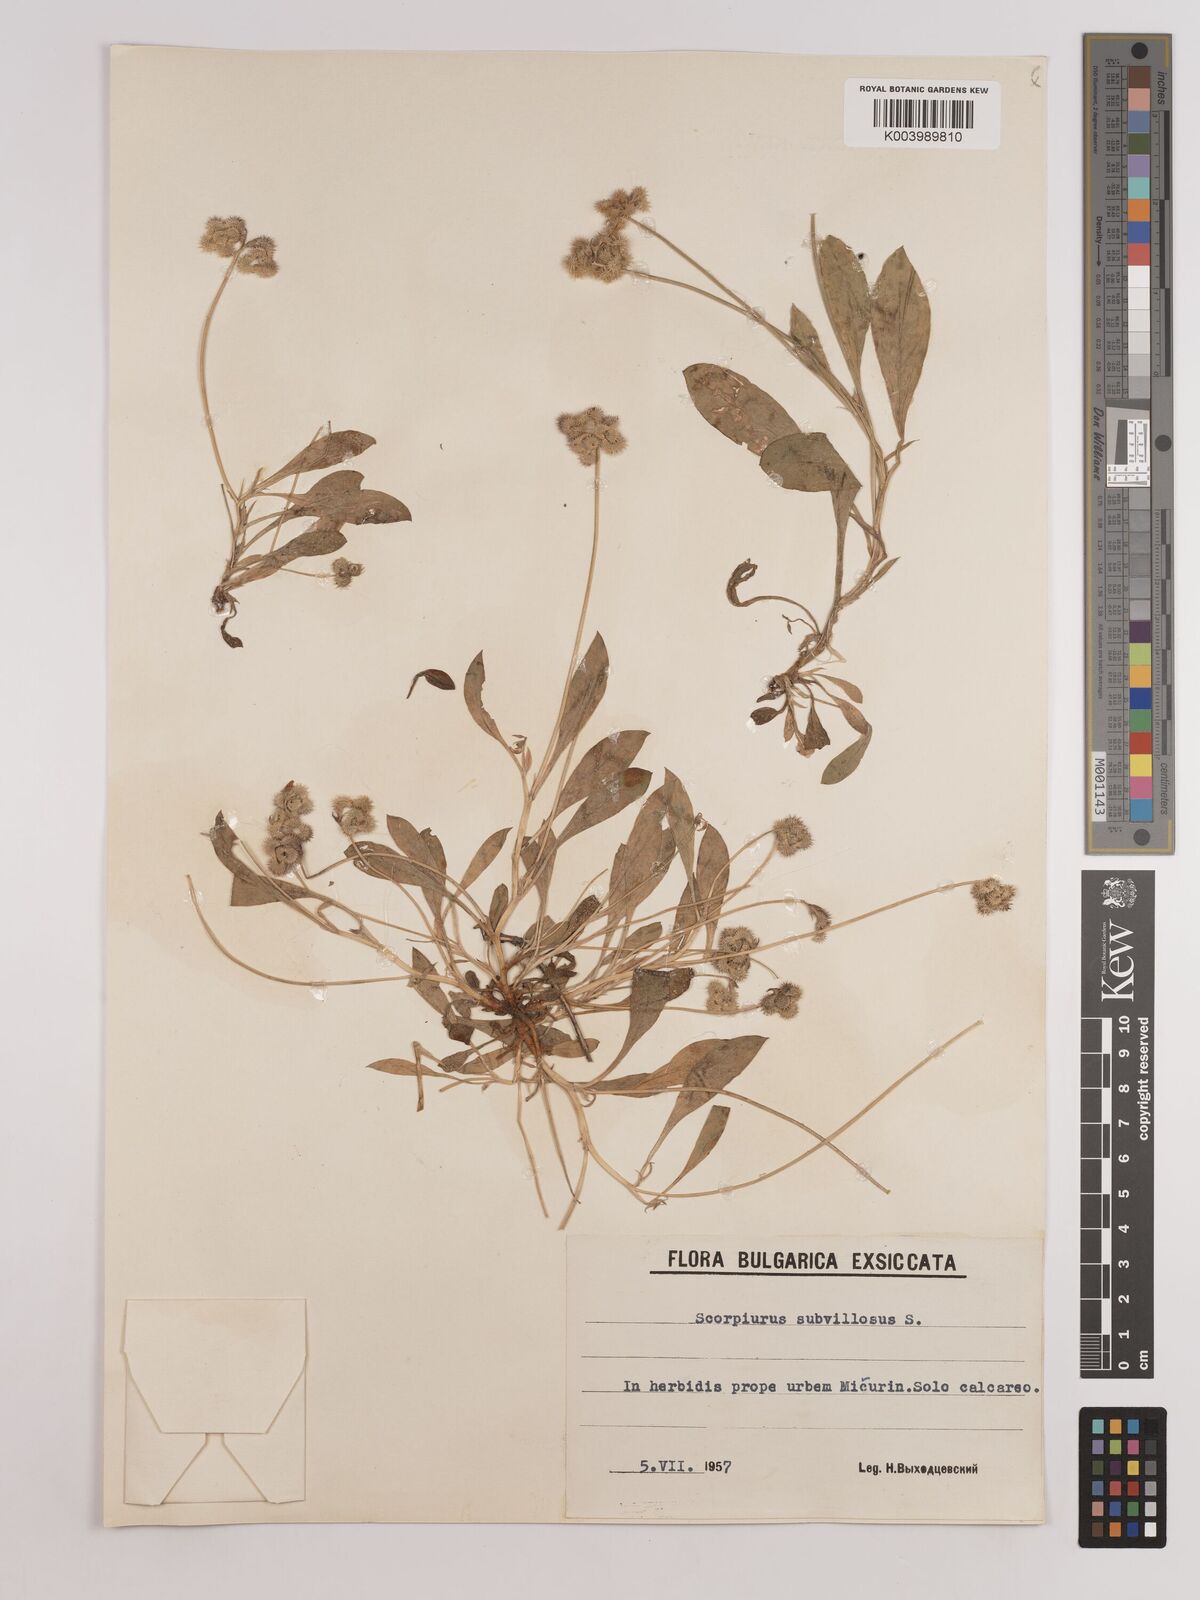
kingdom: Plantae
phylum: Tracheophyta
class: Magnoliopsida
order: Fabales
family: Fabaceae
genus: Scorpiurus
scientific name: Scorpiurus muricatus
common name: Caterpillar-plant
